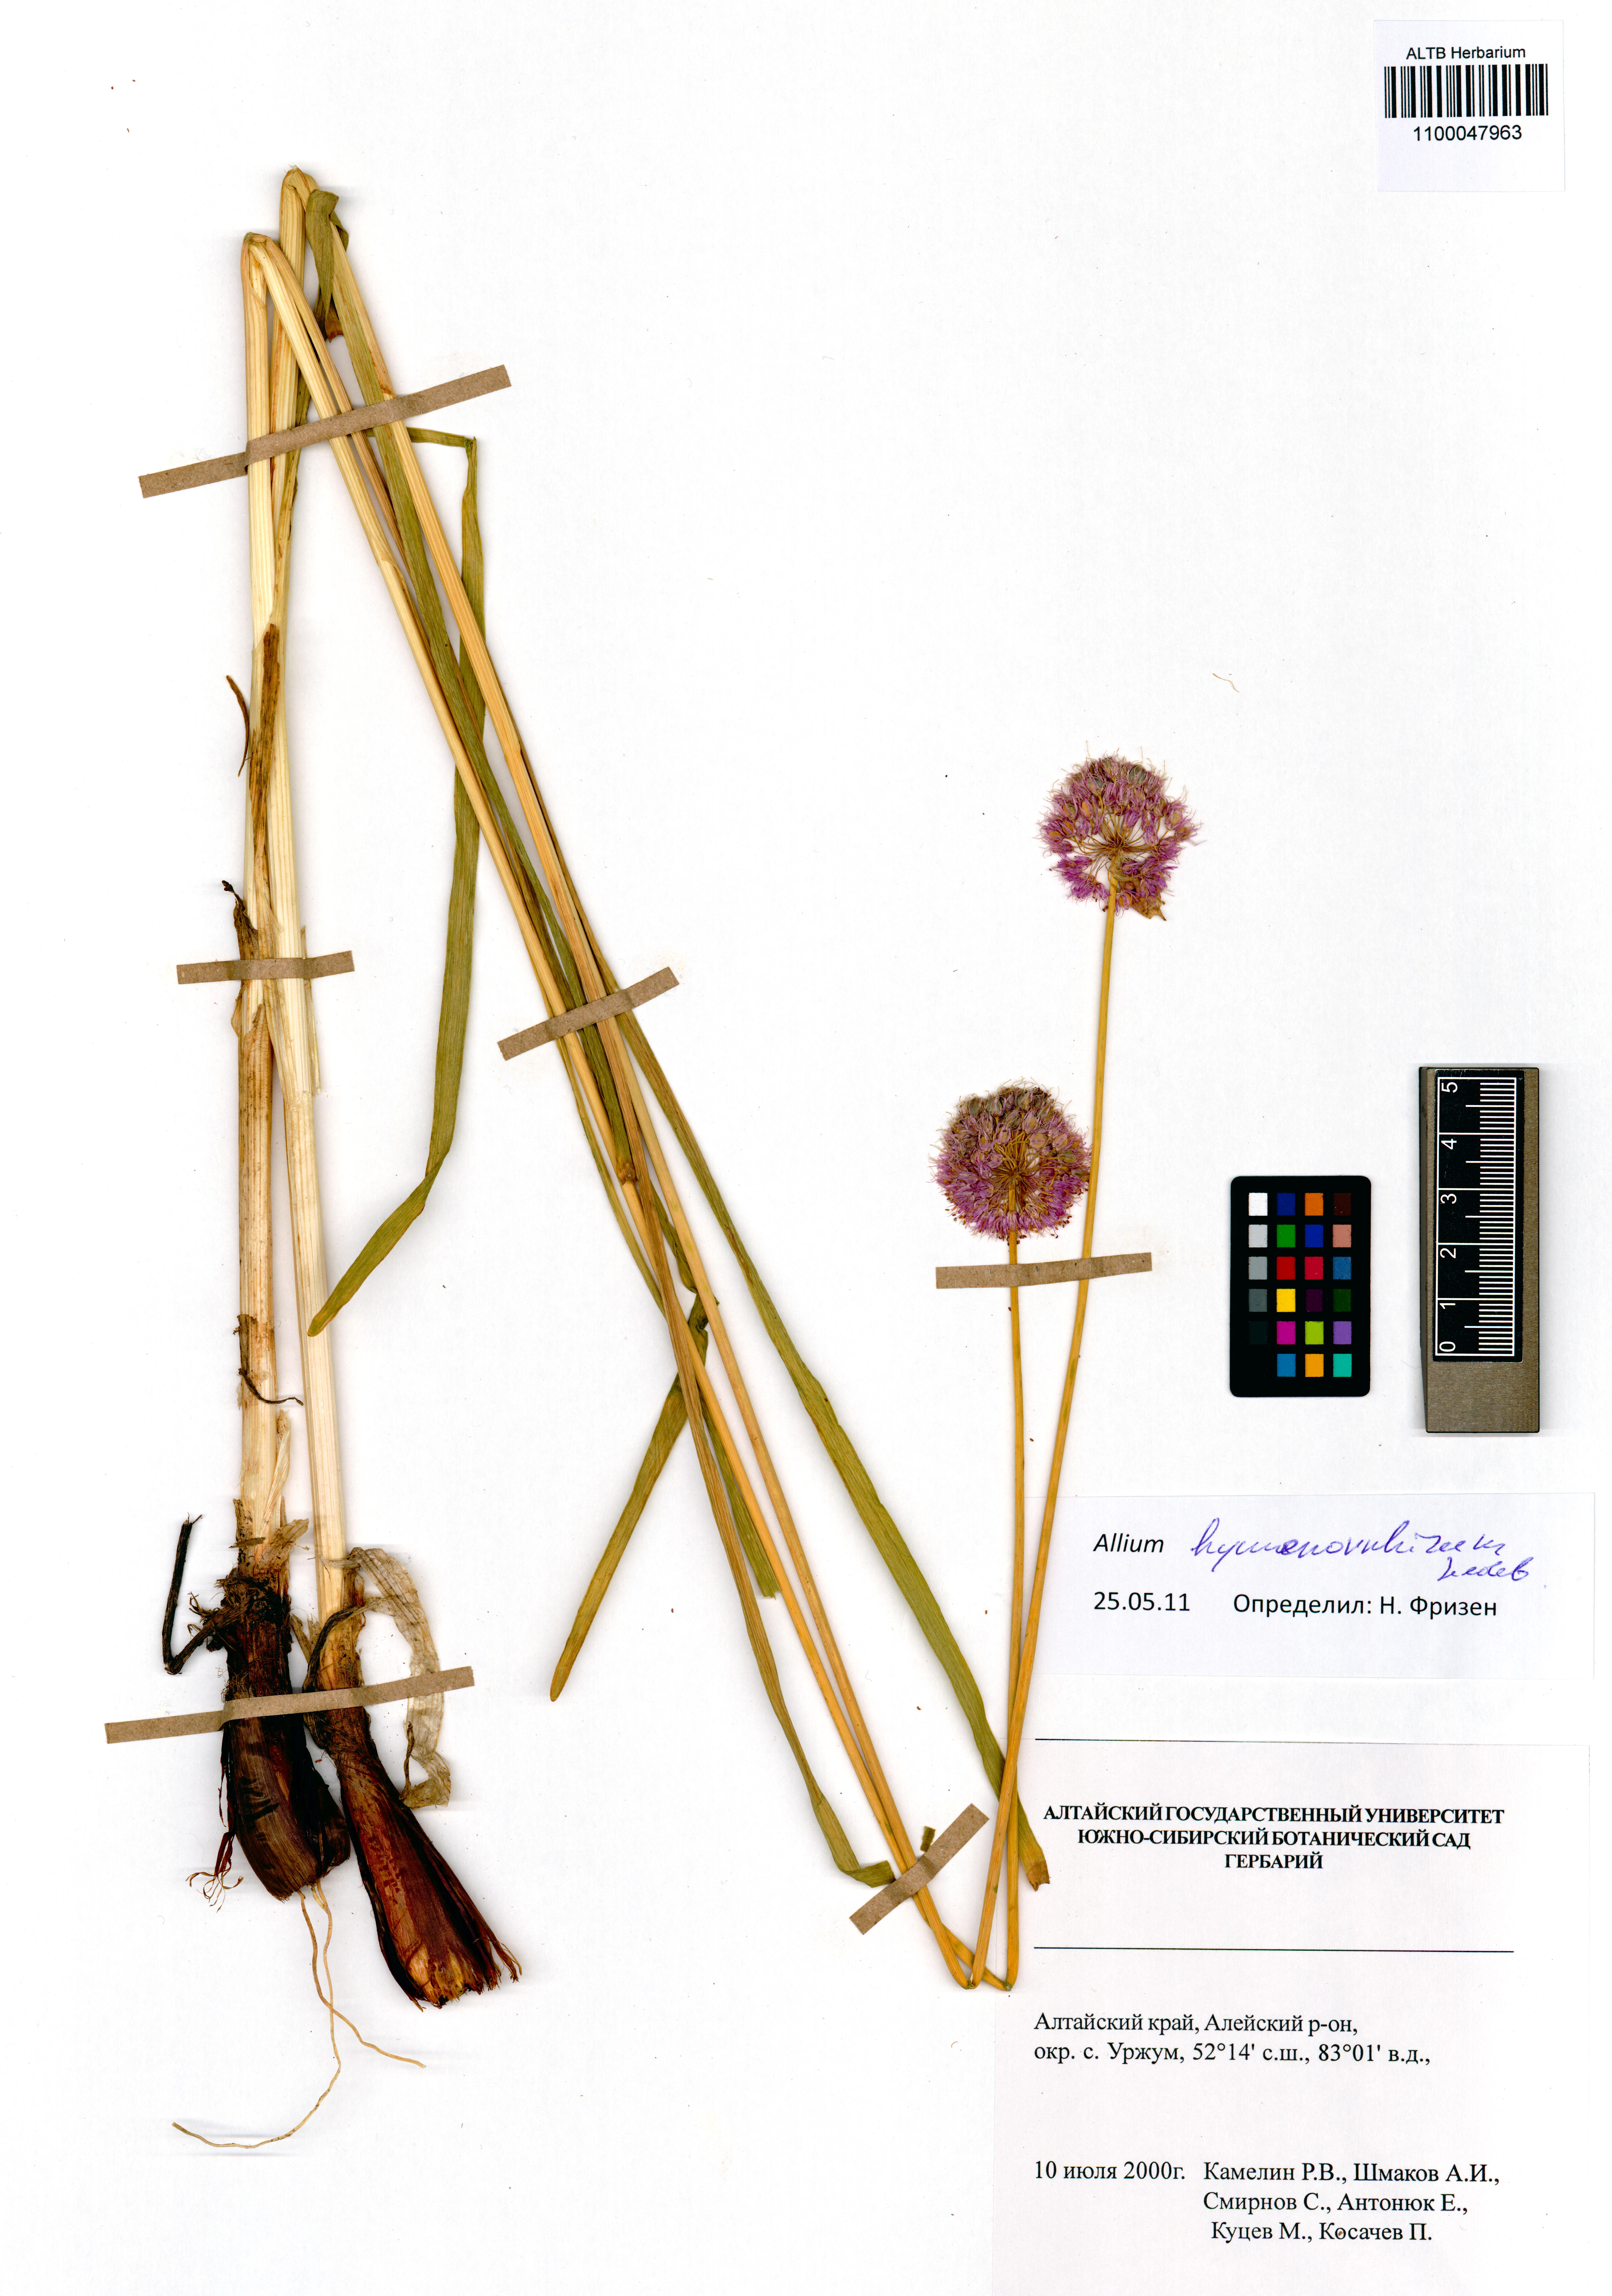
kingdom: Plantae
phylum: Tracheophyta
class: Liliopsida
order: Asparagales
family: Amaryllidaceae
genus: Allium
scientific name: Allium hymenorhizum
